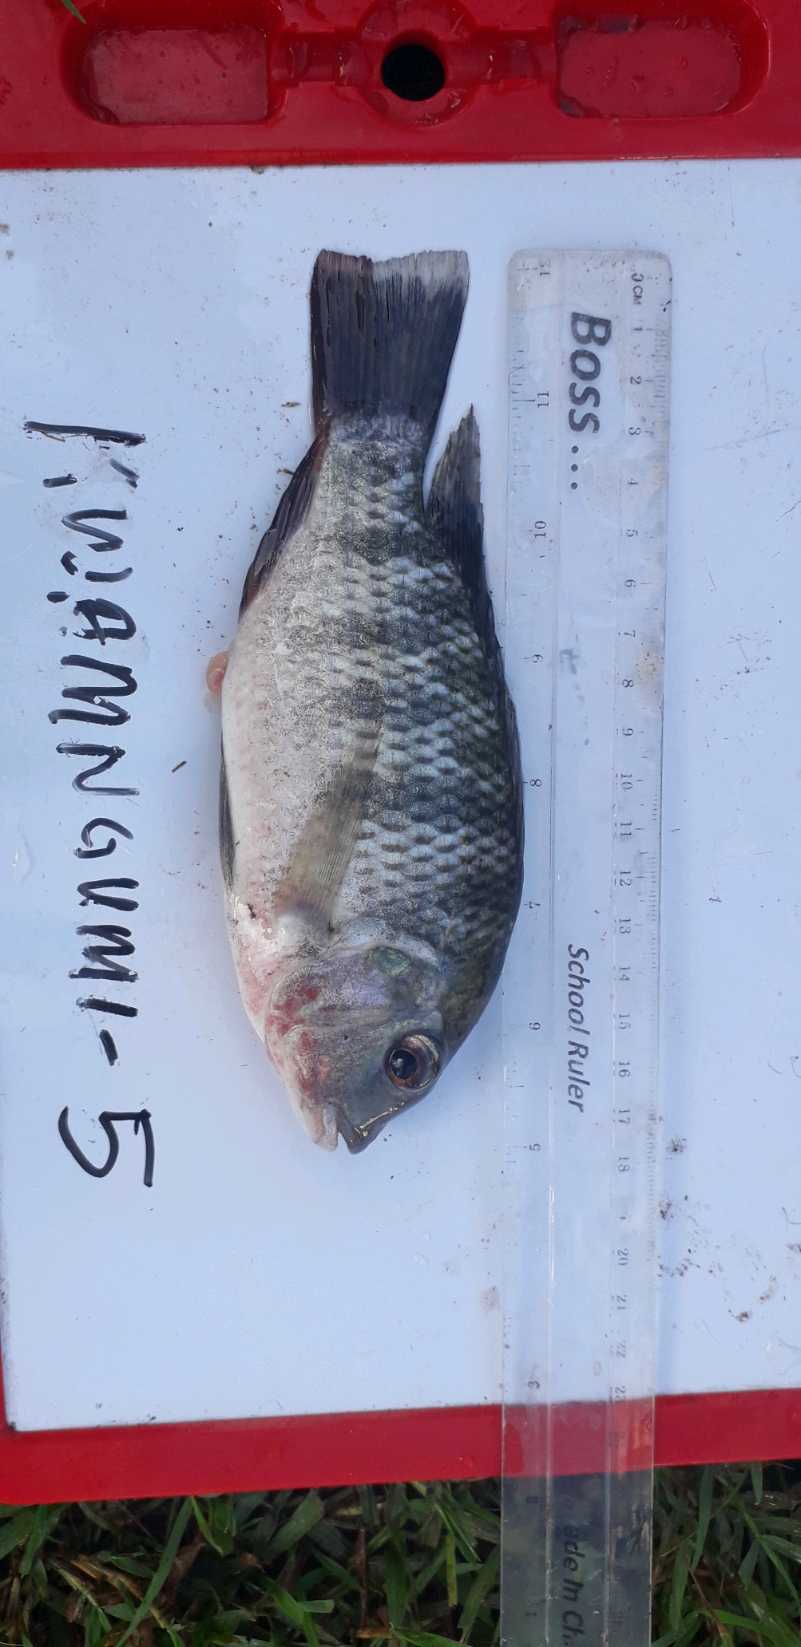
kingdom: Animalia
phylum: Chordata
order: Perciformes
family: Cichlidae
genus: Coptodon
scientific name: Coptodon rendalli
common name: Redbreast tilapia
